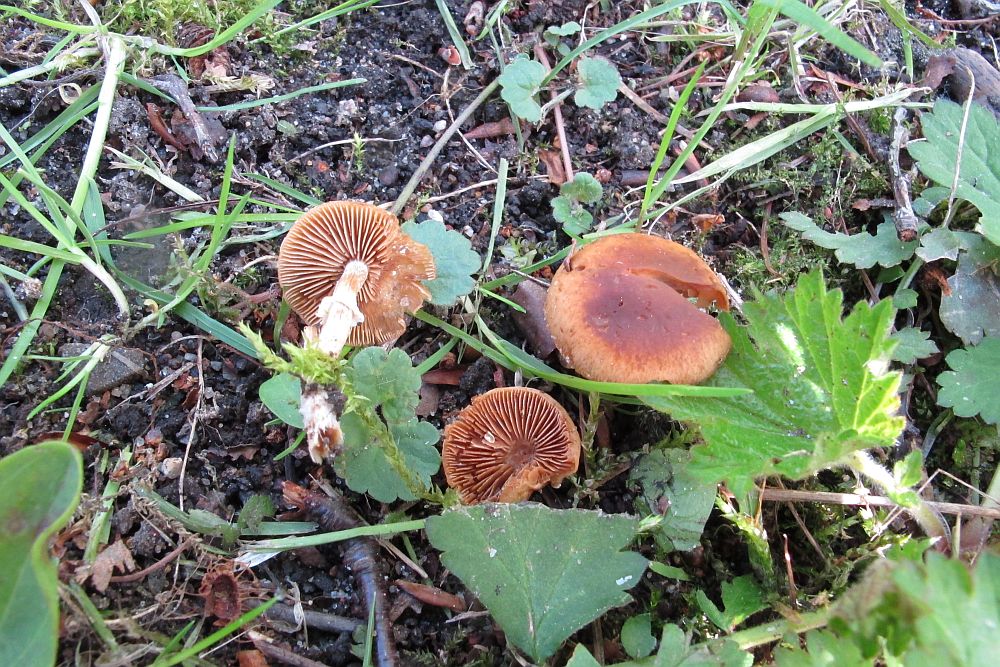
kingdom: Fungi
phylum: Basidiomycota
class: Agaricomycetes
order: Agaricales
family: Bolbitiaceae
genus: Conocybe
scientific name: Conocybe aporos
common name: tidlig dansehat
